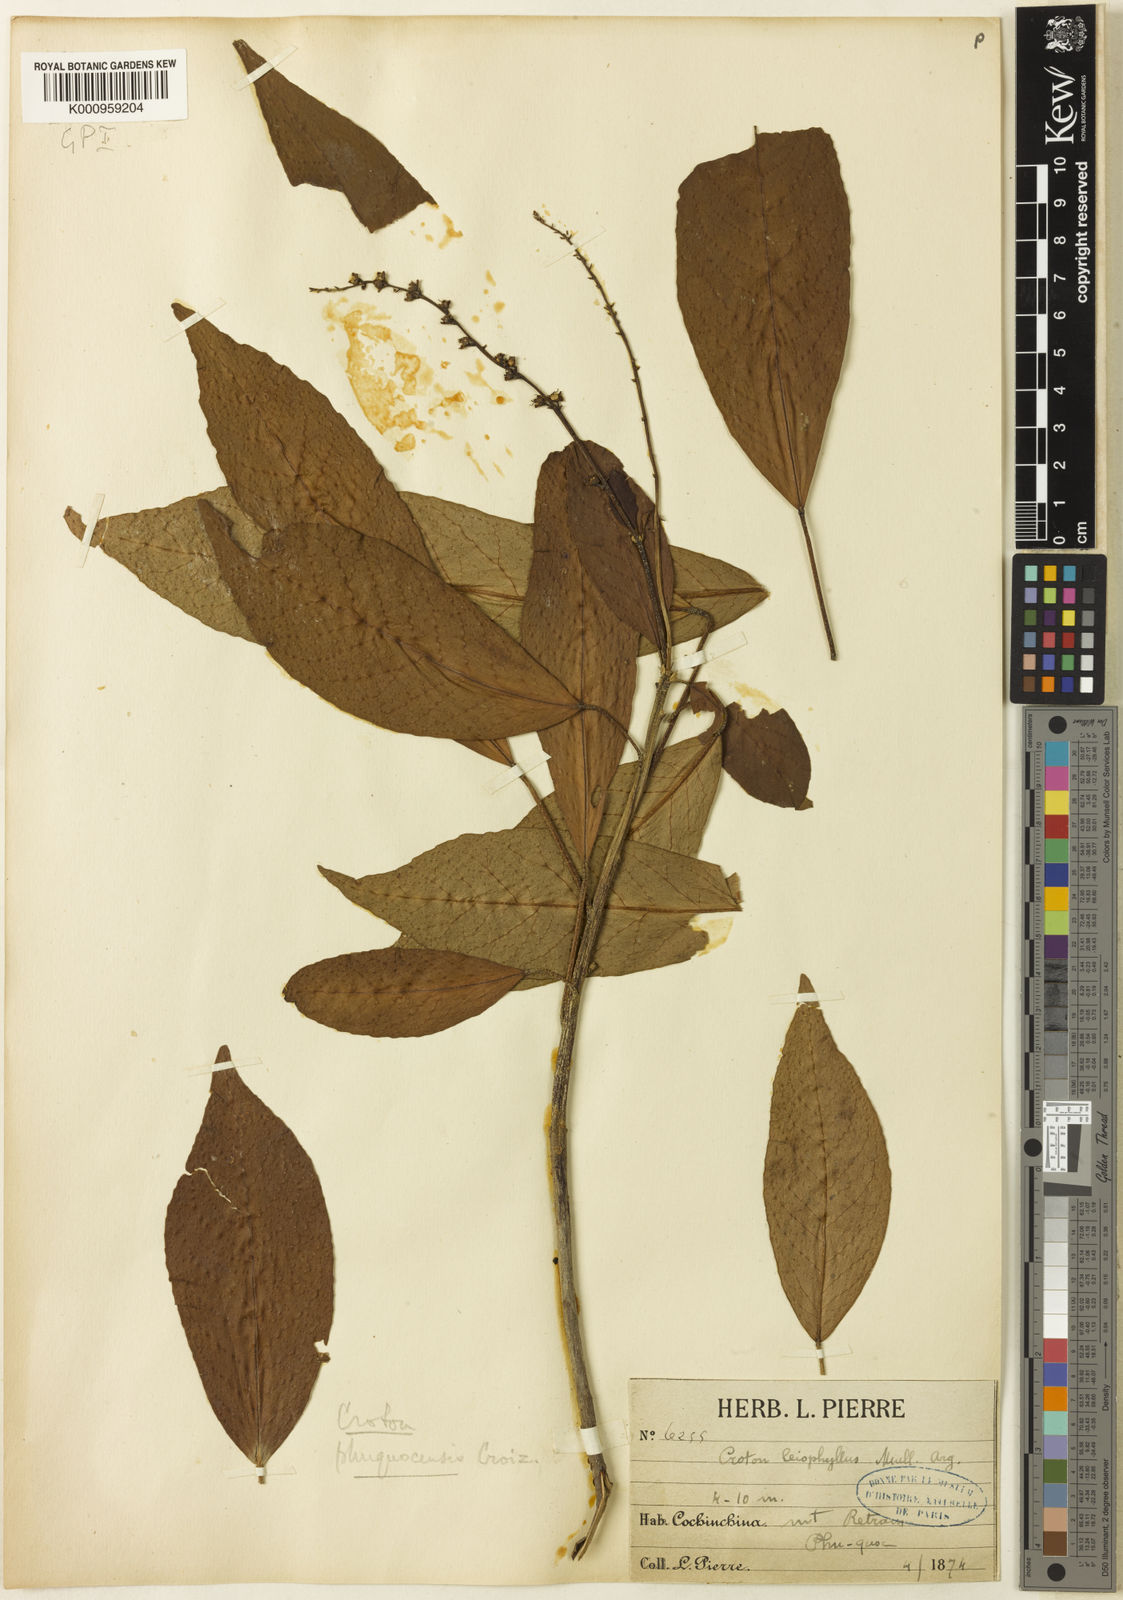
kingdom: Plantae
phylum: Tracheophyta
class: Magnoliopsida
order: Malpighiales
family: Euphorbiaceae
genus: Croton
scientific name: Croton phuquocensis
